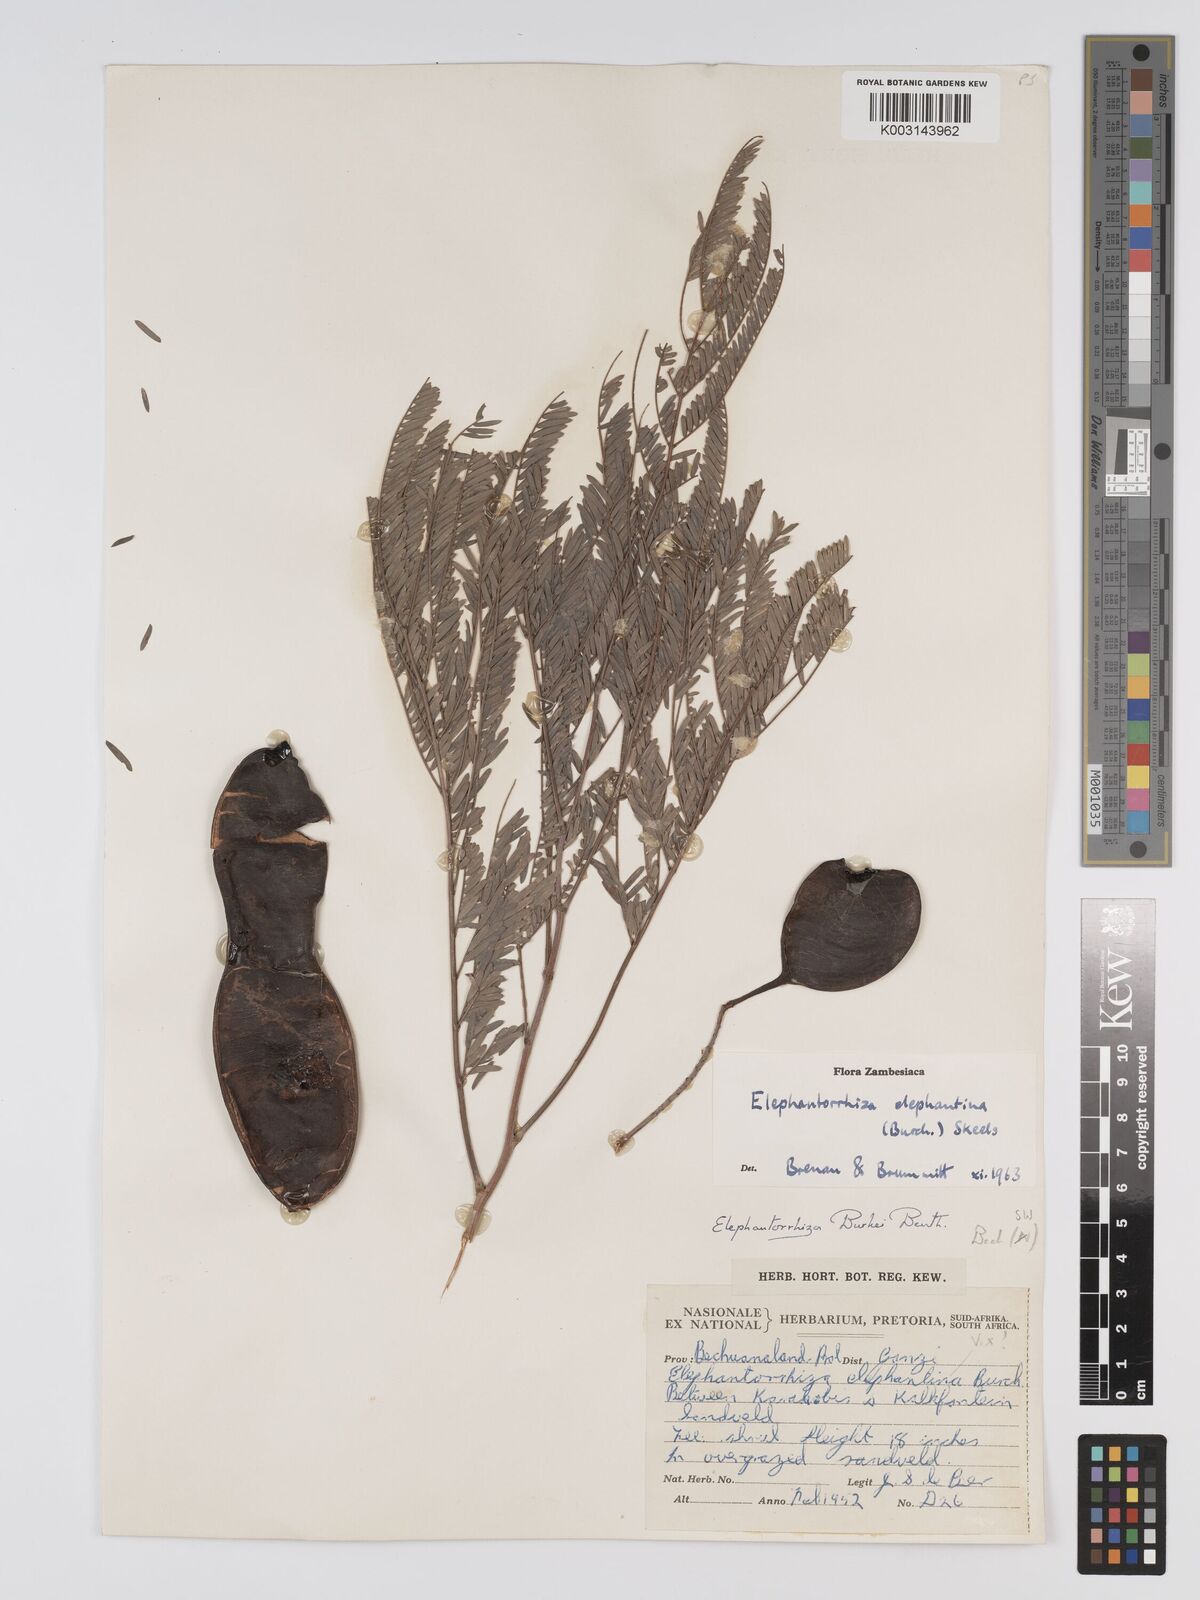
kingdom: Plantae
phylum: Tracheophyta
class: Magnoliopsida
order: Fabales
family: Fabaceae
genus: Elephantorrhiza
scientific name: Elephantorrhiza elephantina
